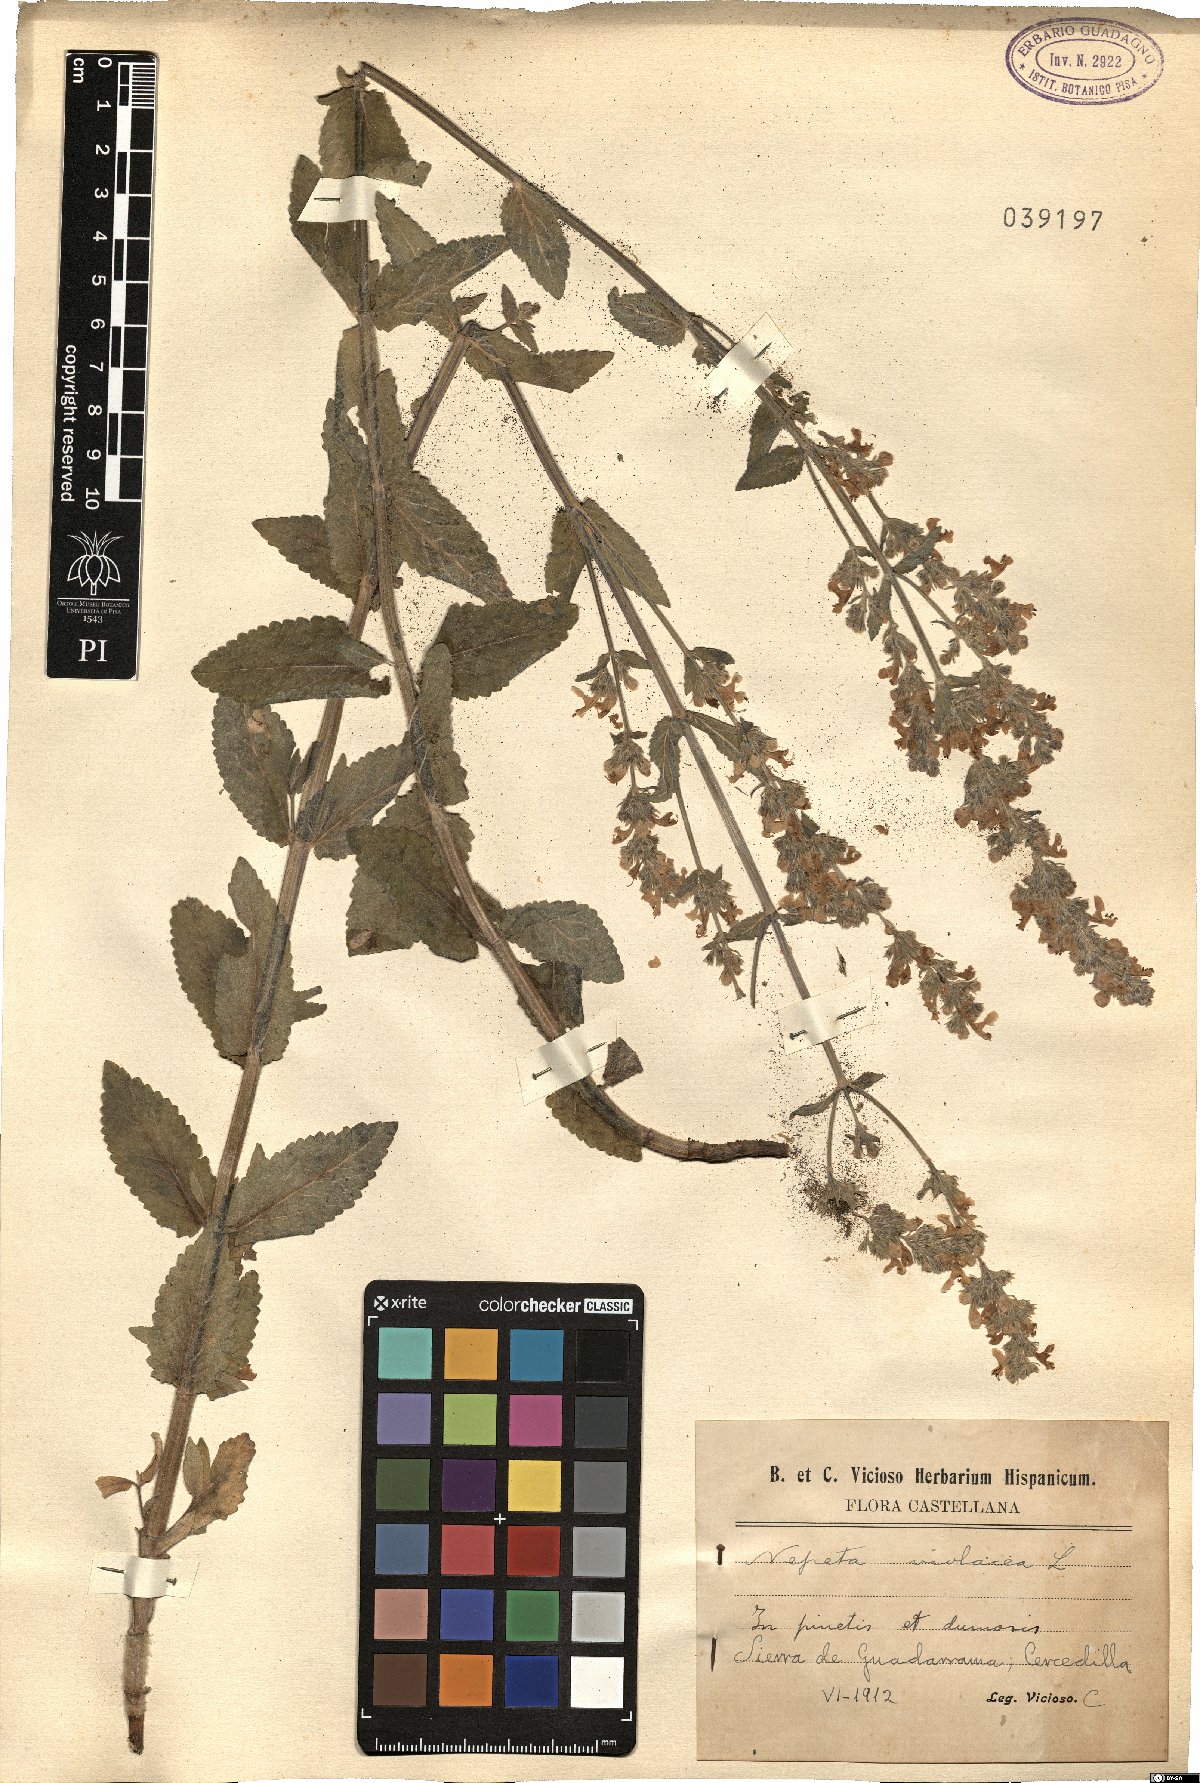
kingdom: Plantae
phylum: Tracheophyta
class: Magnoliopsida
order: Lamiales
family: Lamiaceae
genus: Nepeta
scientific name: Nepeta nuda
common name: Hairless catmint
